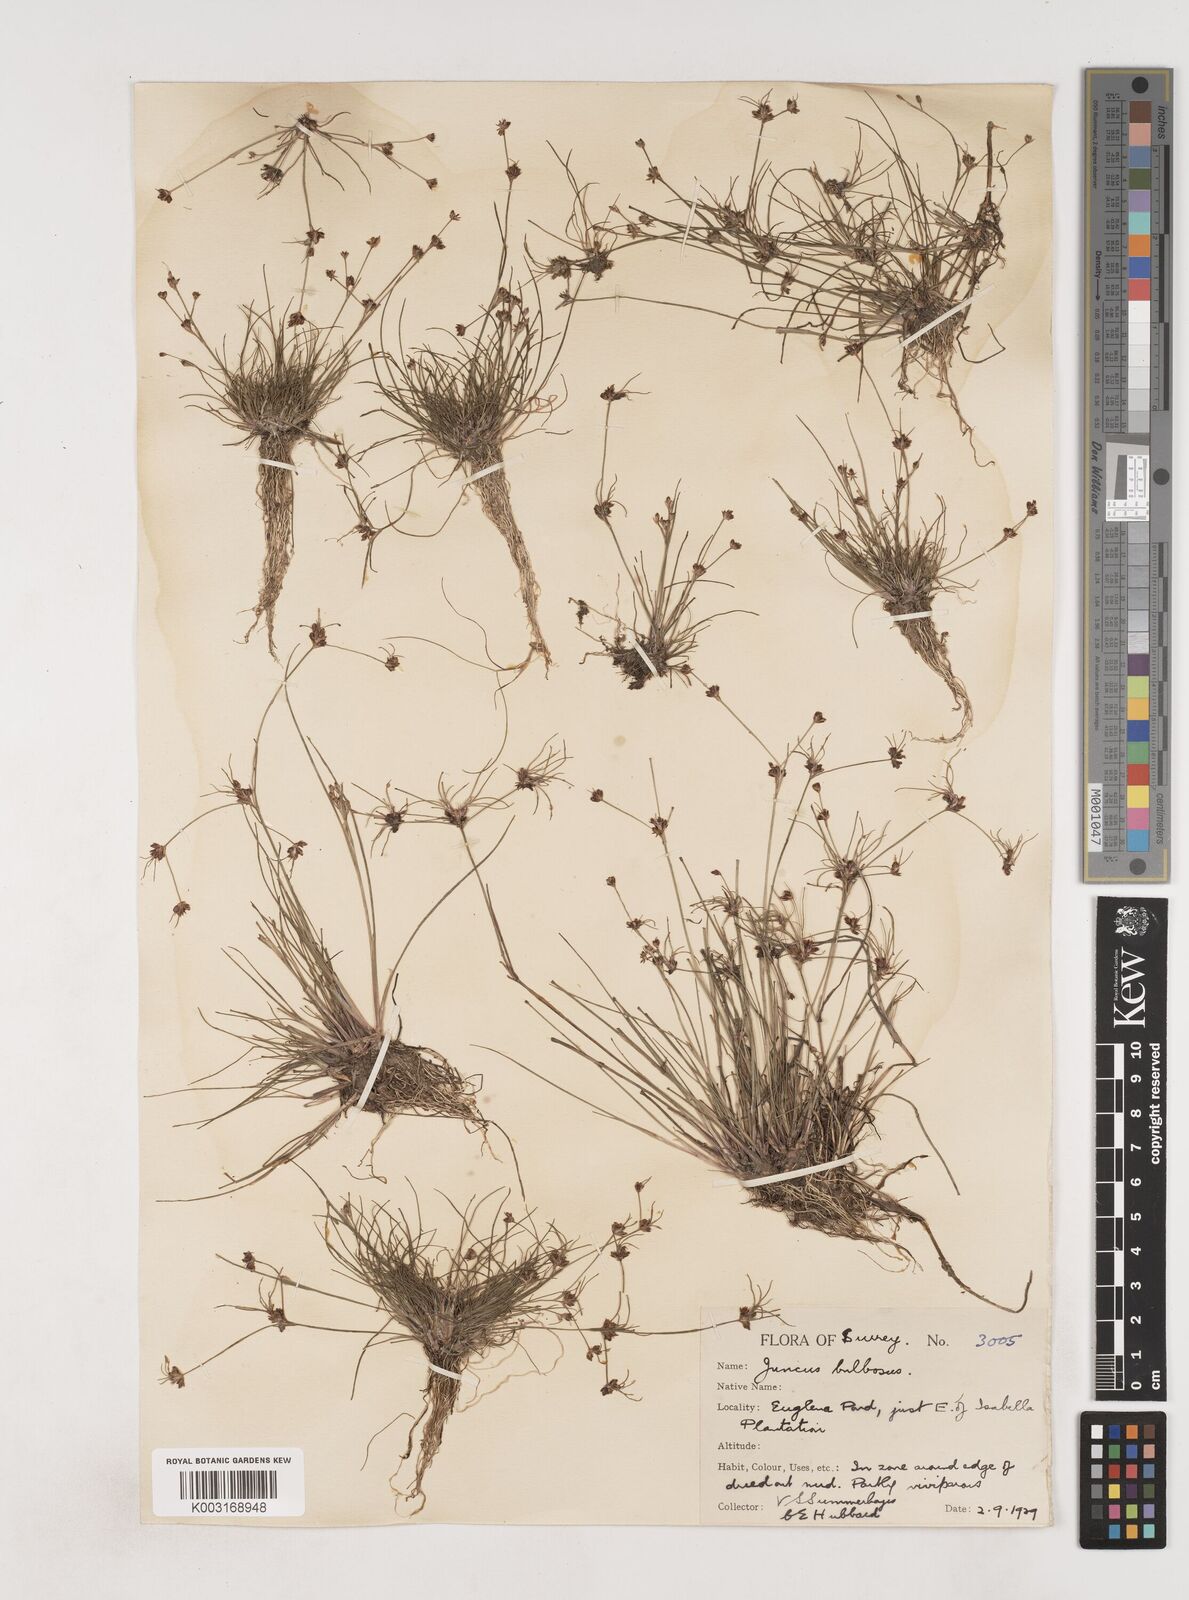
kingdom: Plantae
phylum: Tracheophyta
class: Liliopsida
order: Poales
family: Juncaceae
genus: Juncus
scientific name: Juncus bulbosus
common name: Bulbous rush
